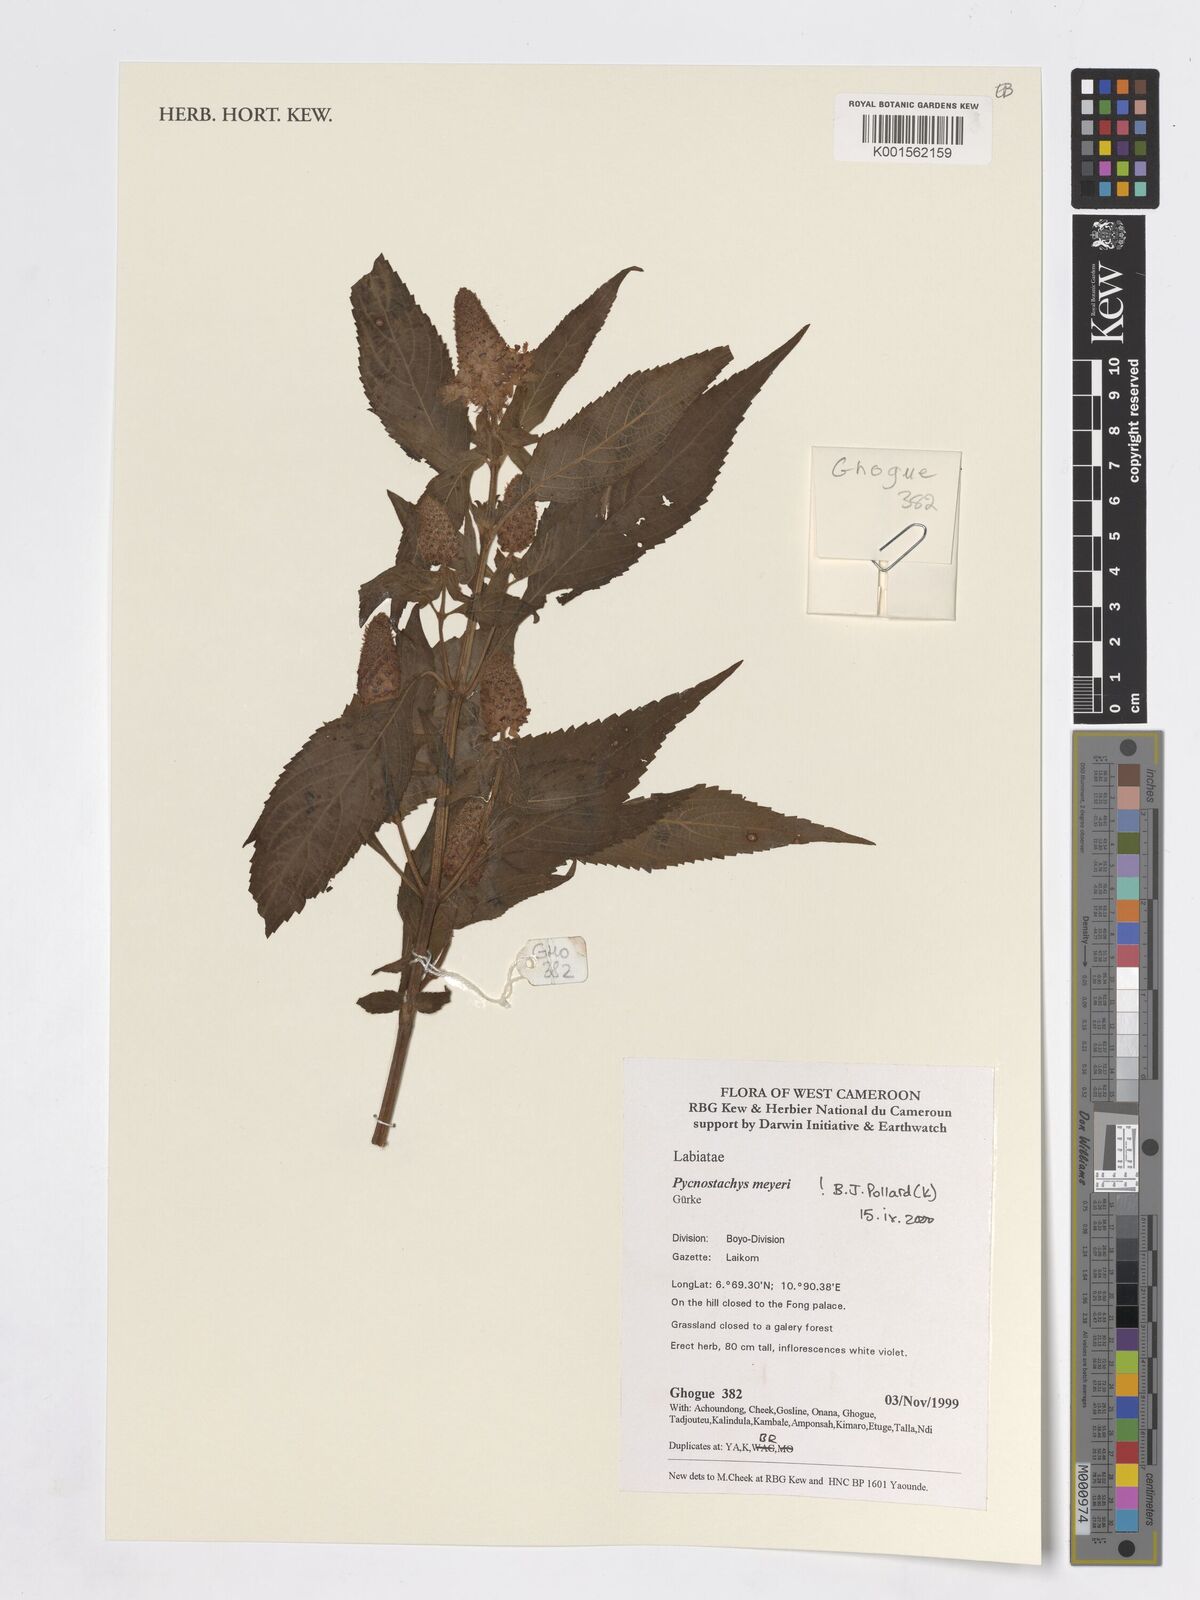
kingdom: Plantae
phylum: Tracheophyta
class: Magnoliopsida
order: Lamiales
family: Lamiaceae
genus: Coleus
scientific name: Coleus meyeri
